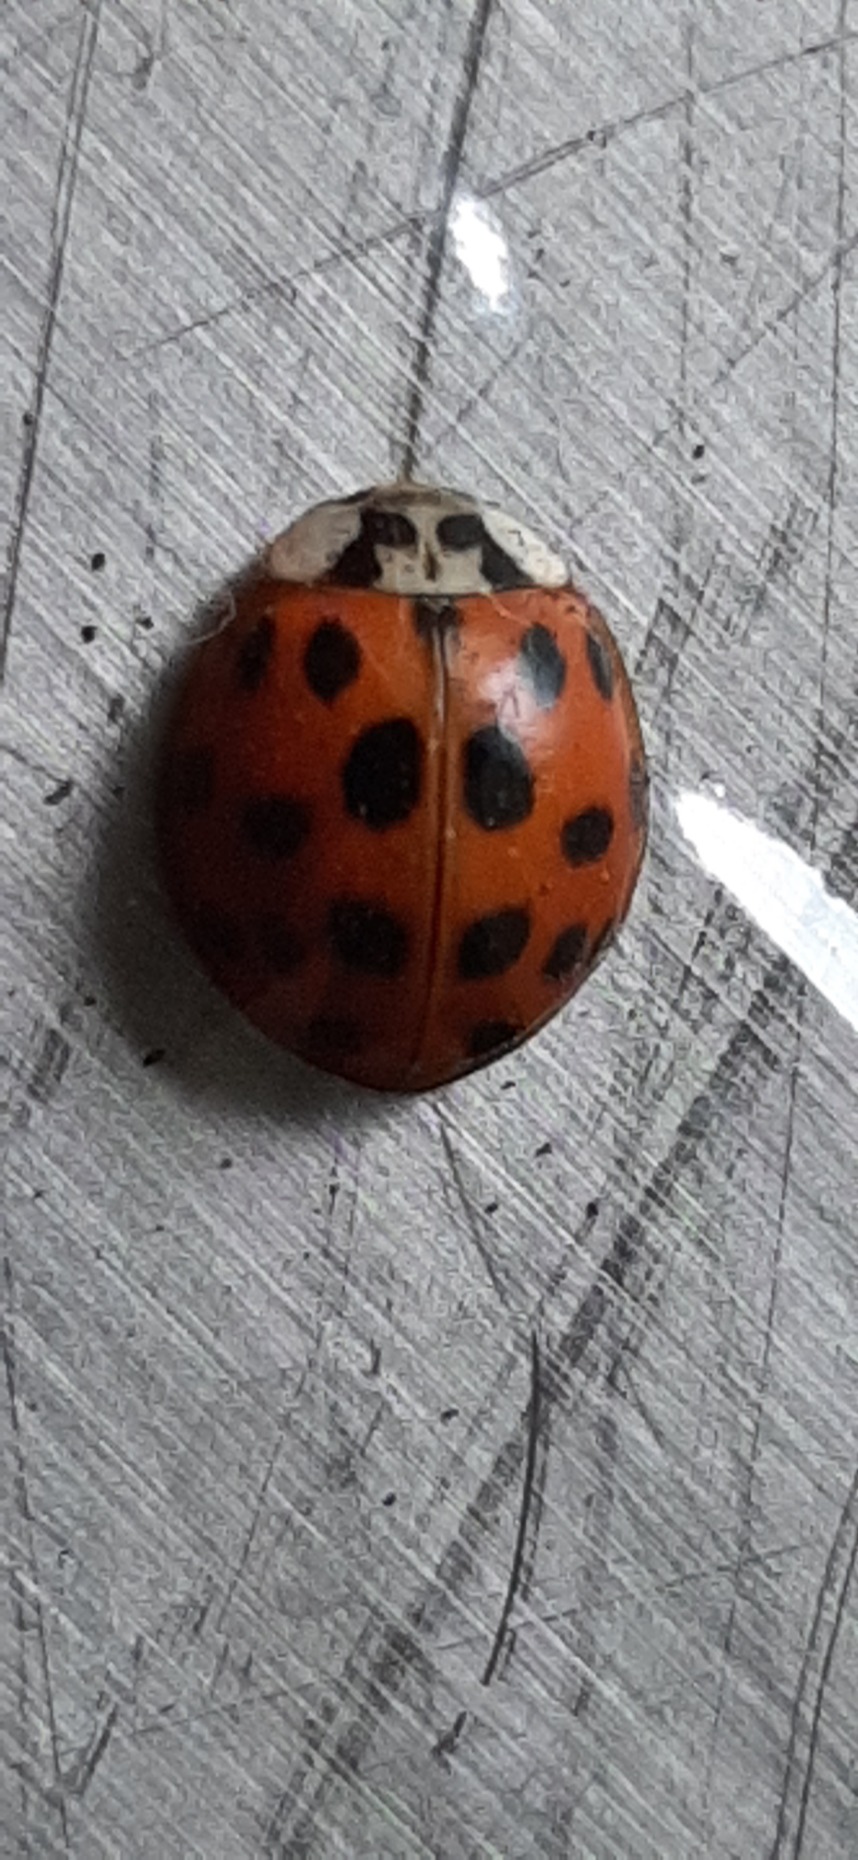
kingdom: Animalia
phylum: Arthropoda
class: Insecta
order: Coleoptera
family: Coccinellidae
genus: Harmonia
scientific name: Harmonia axyridis
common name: Harlekinmariehøne
